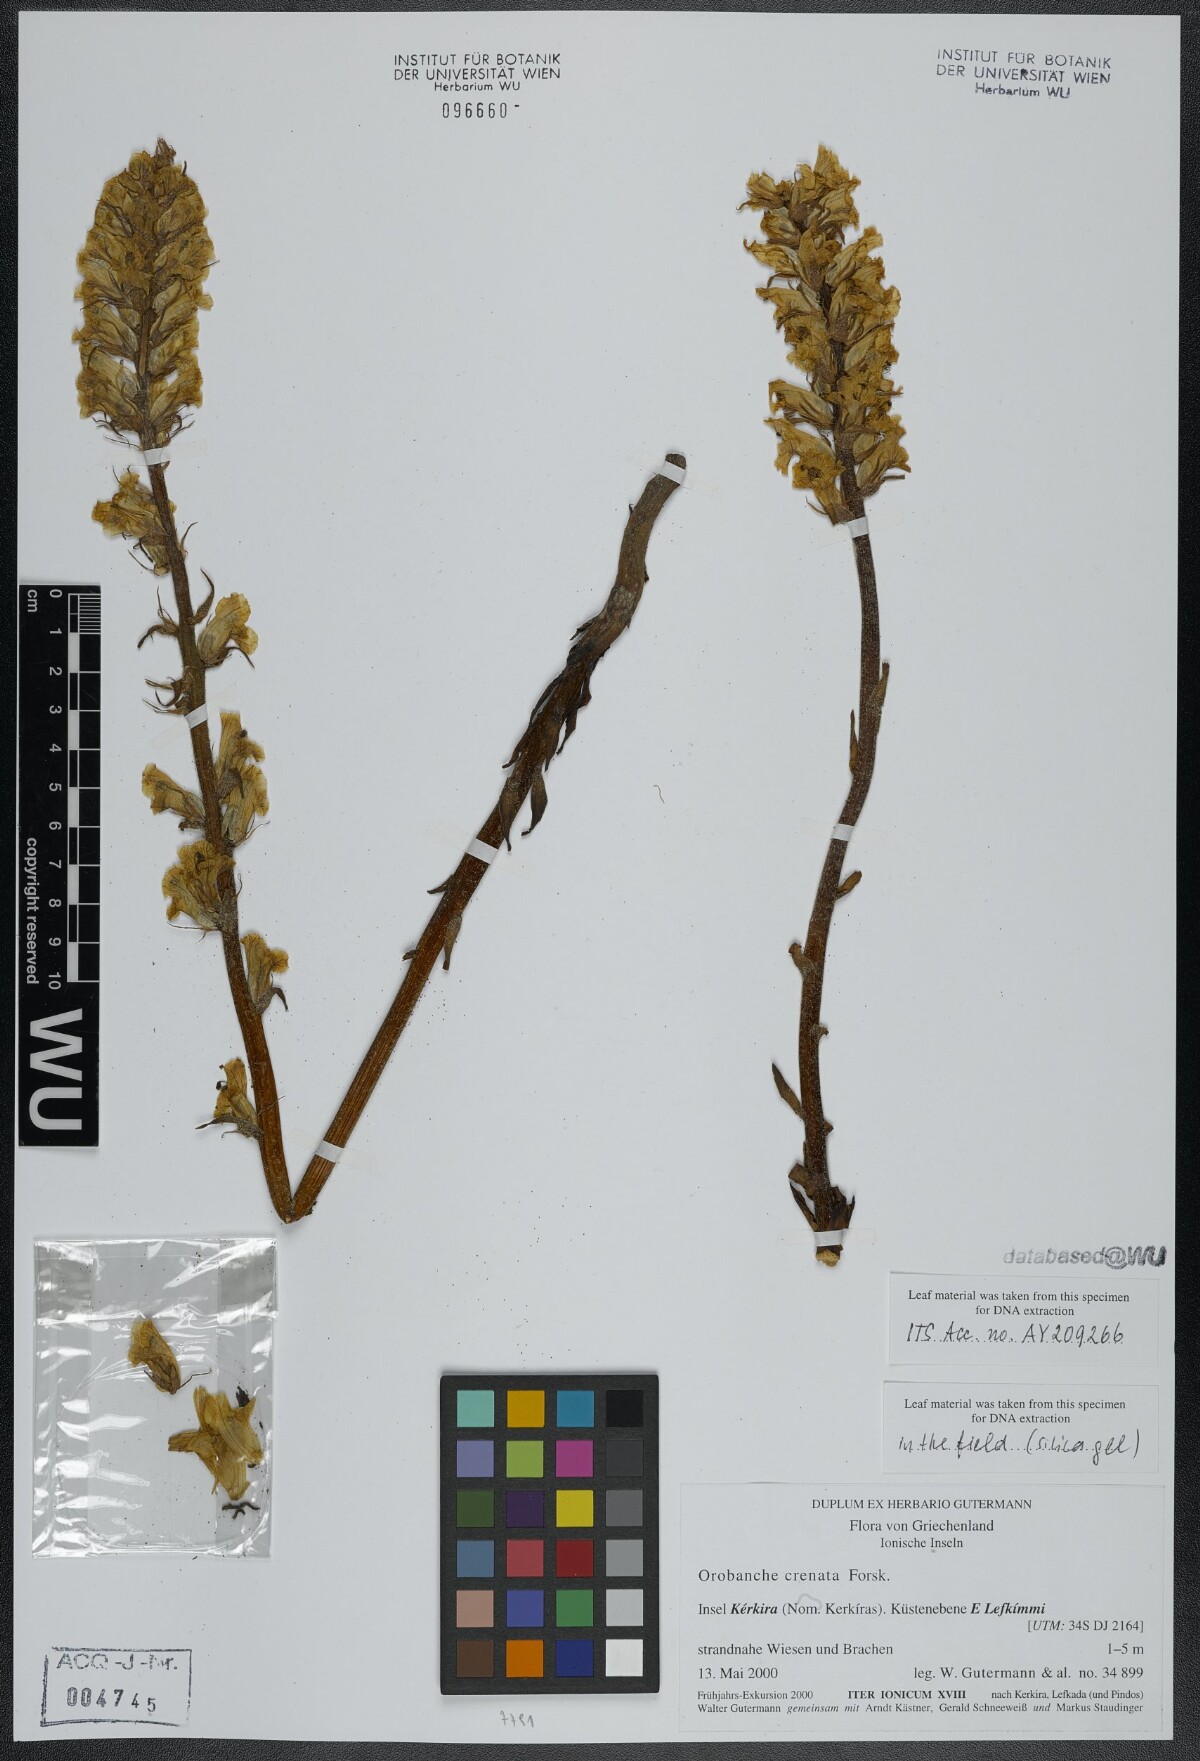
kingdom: Plantae
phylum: Tracheophyta
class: Magnoliopsida
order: Lamiales
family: Orobanchaceae
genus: Orobanche
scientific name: Orobanche crenata
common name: Bean broomrape
